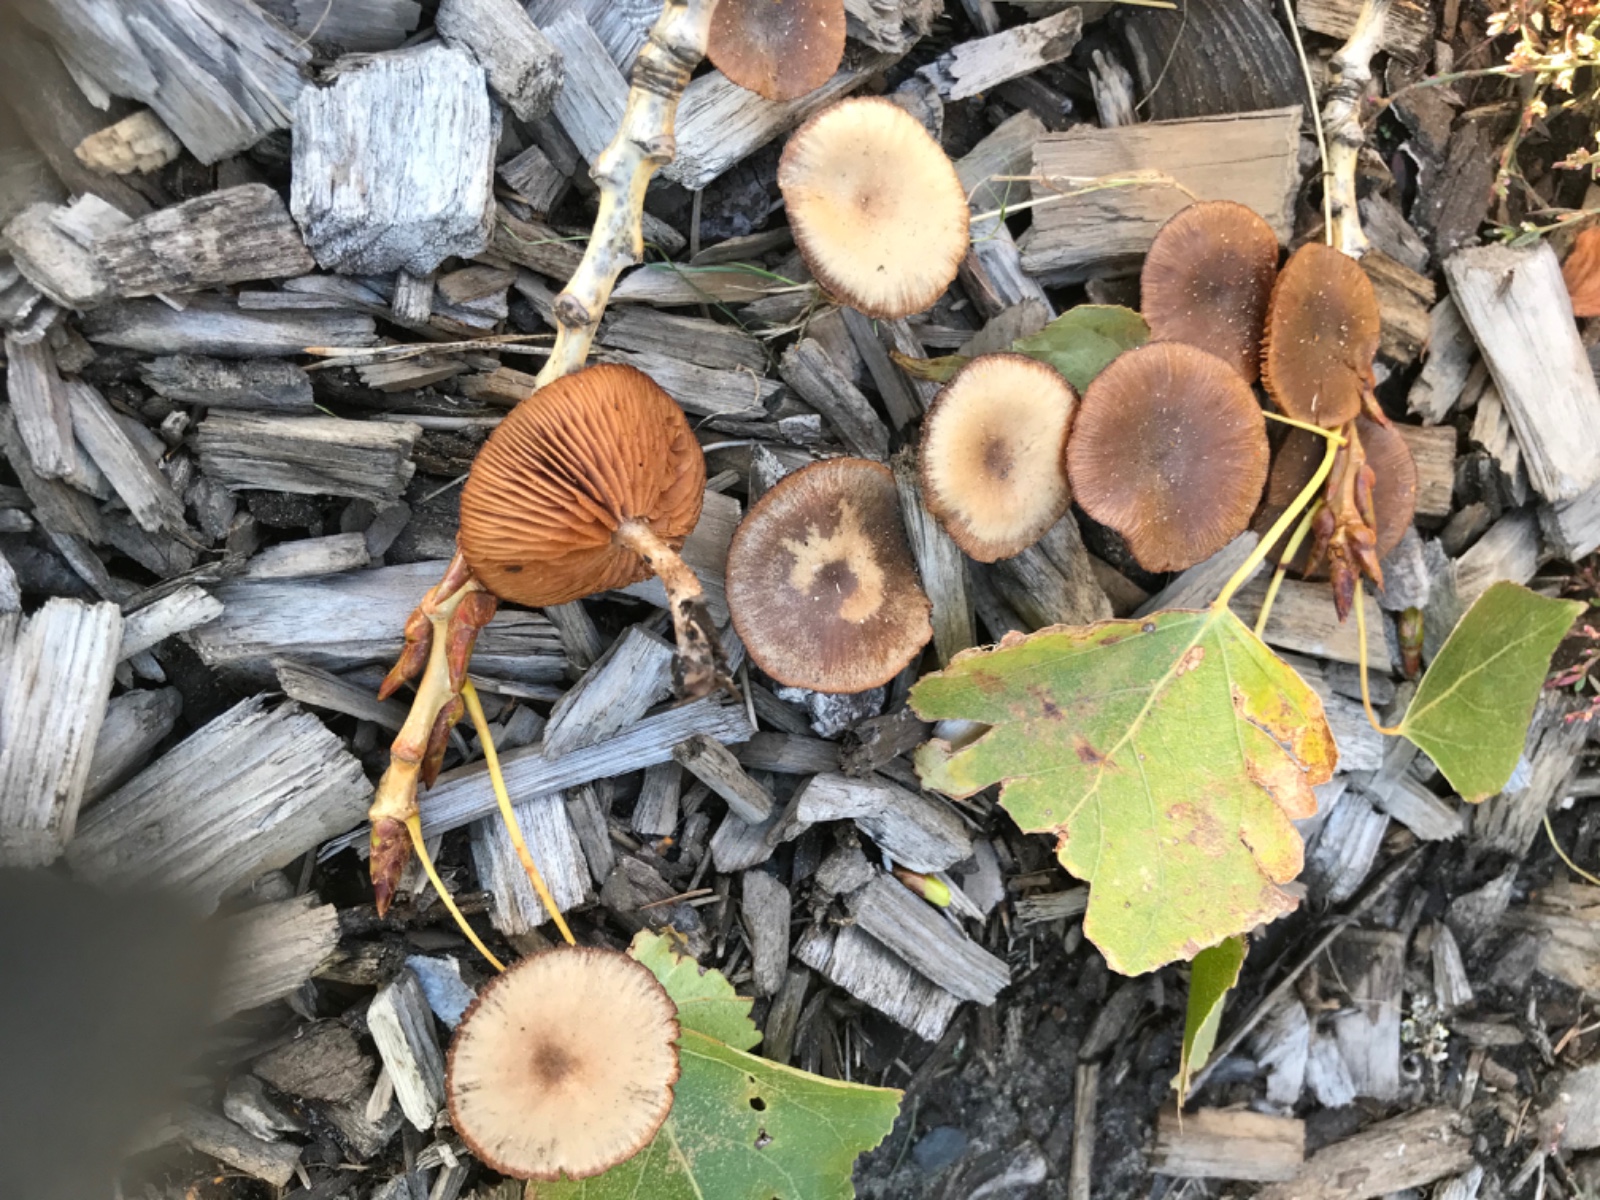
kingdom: Fungi
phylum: Basidiomycota
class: Agaricomycetes
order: Agaricales
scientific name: Agaricales
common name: champignonordenen
